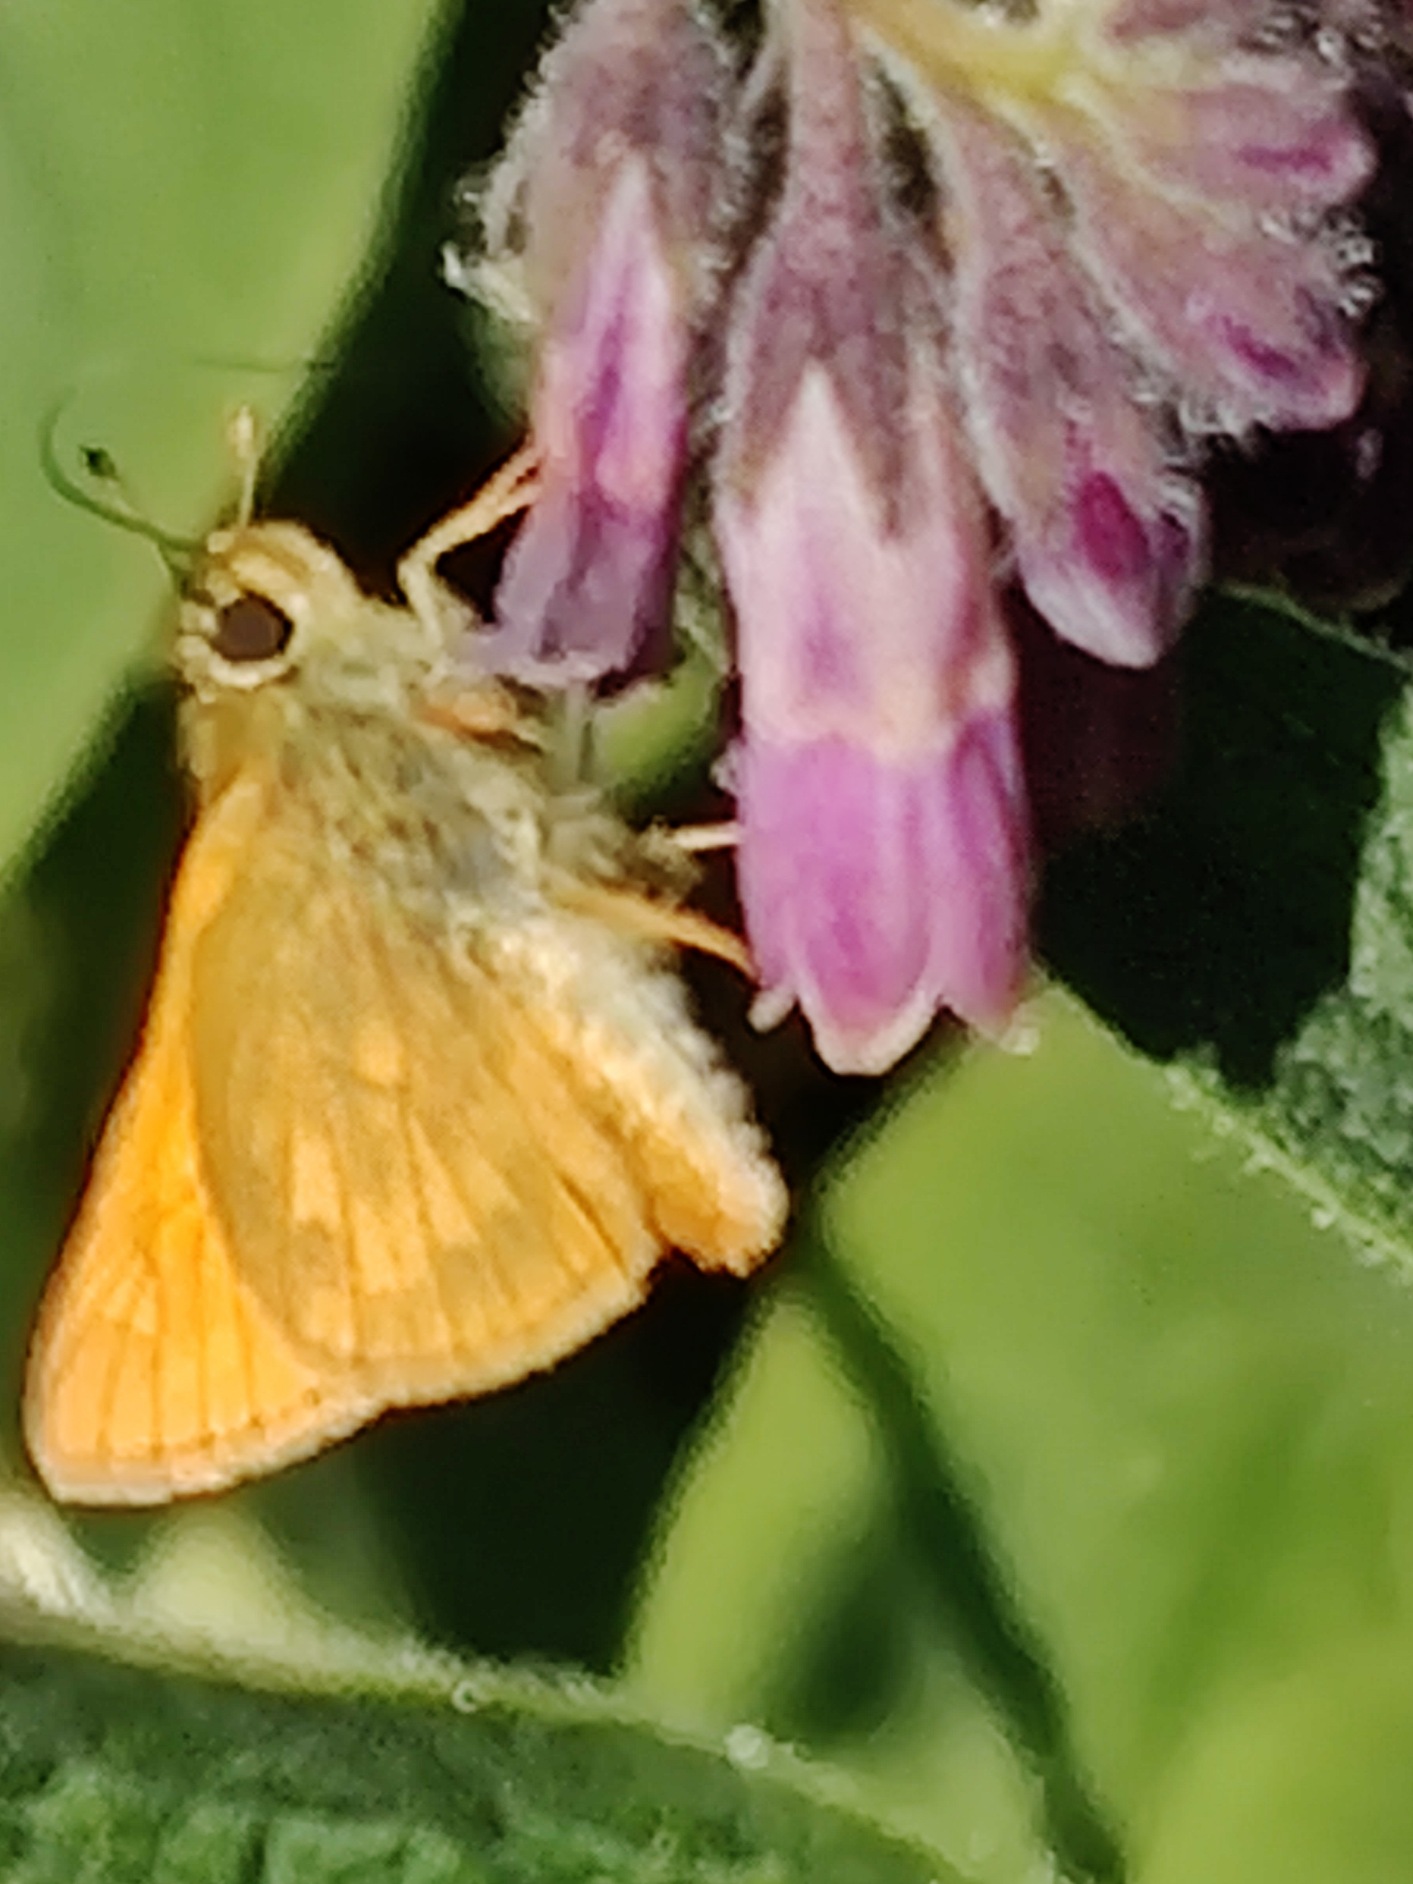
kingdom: Animalia
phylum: Arthropoda
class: Insecta
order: Lepidoptera
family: Hesperiidae
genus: Ochlodes
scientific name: Ochlodes venata
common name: Stor bredpande
